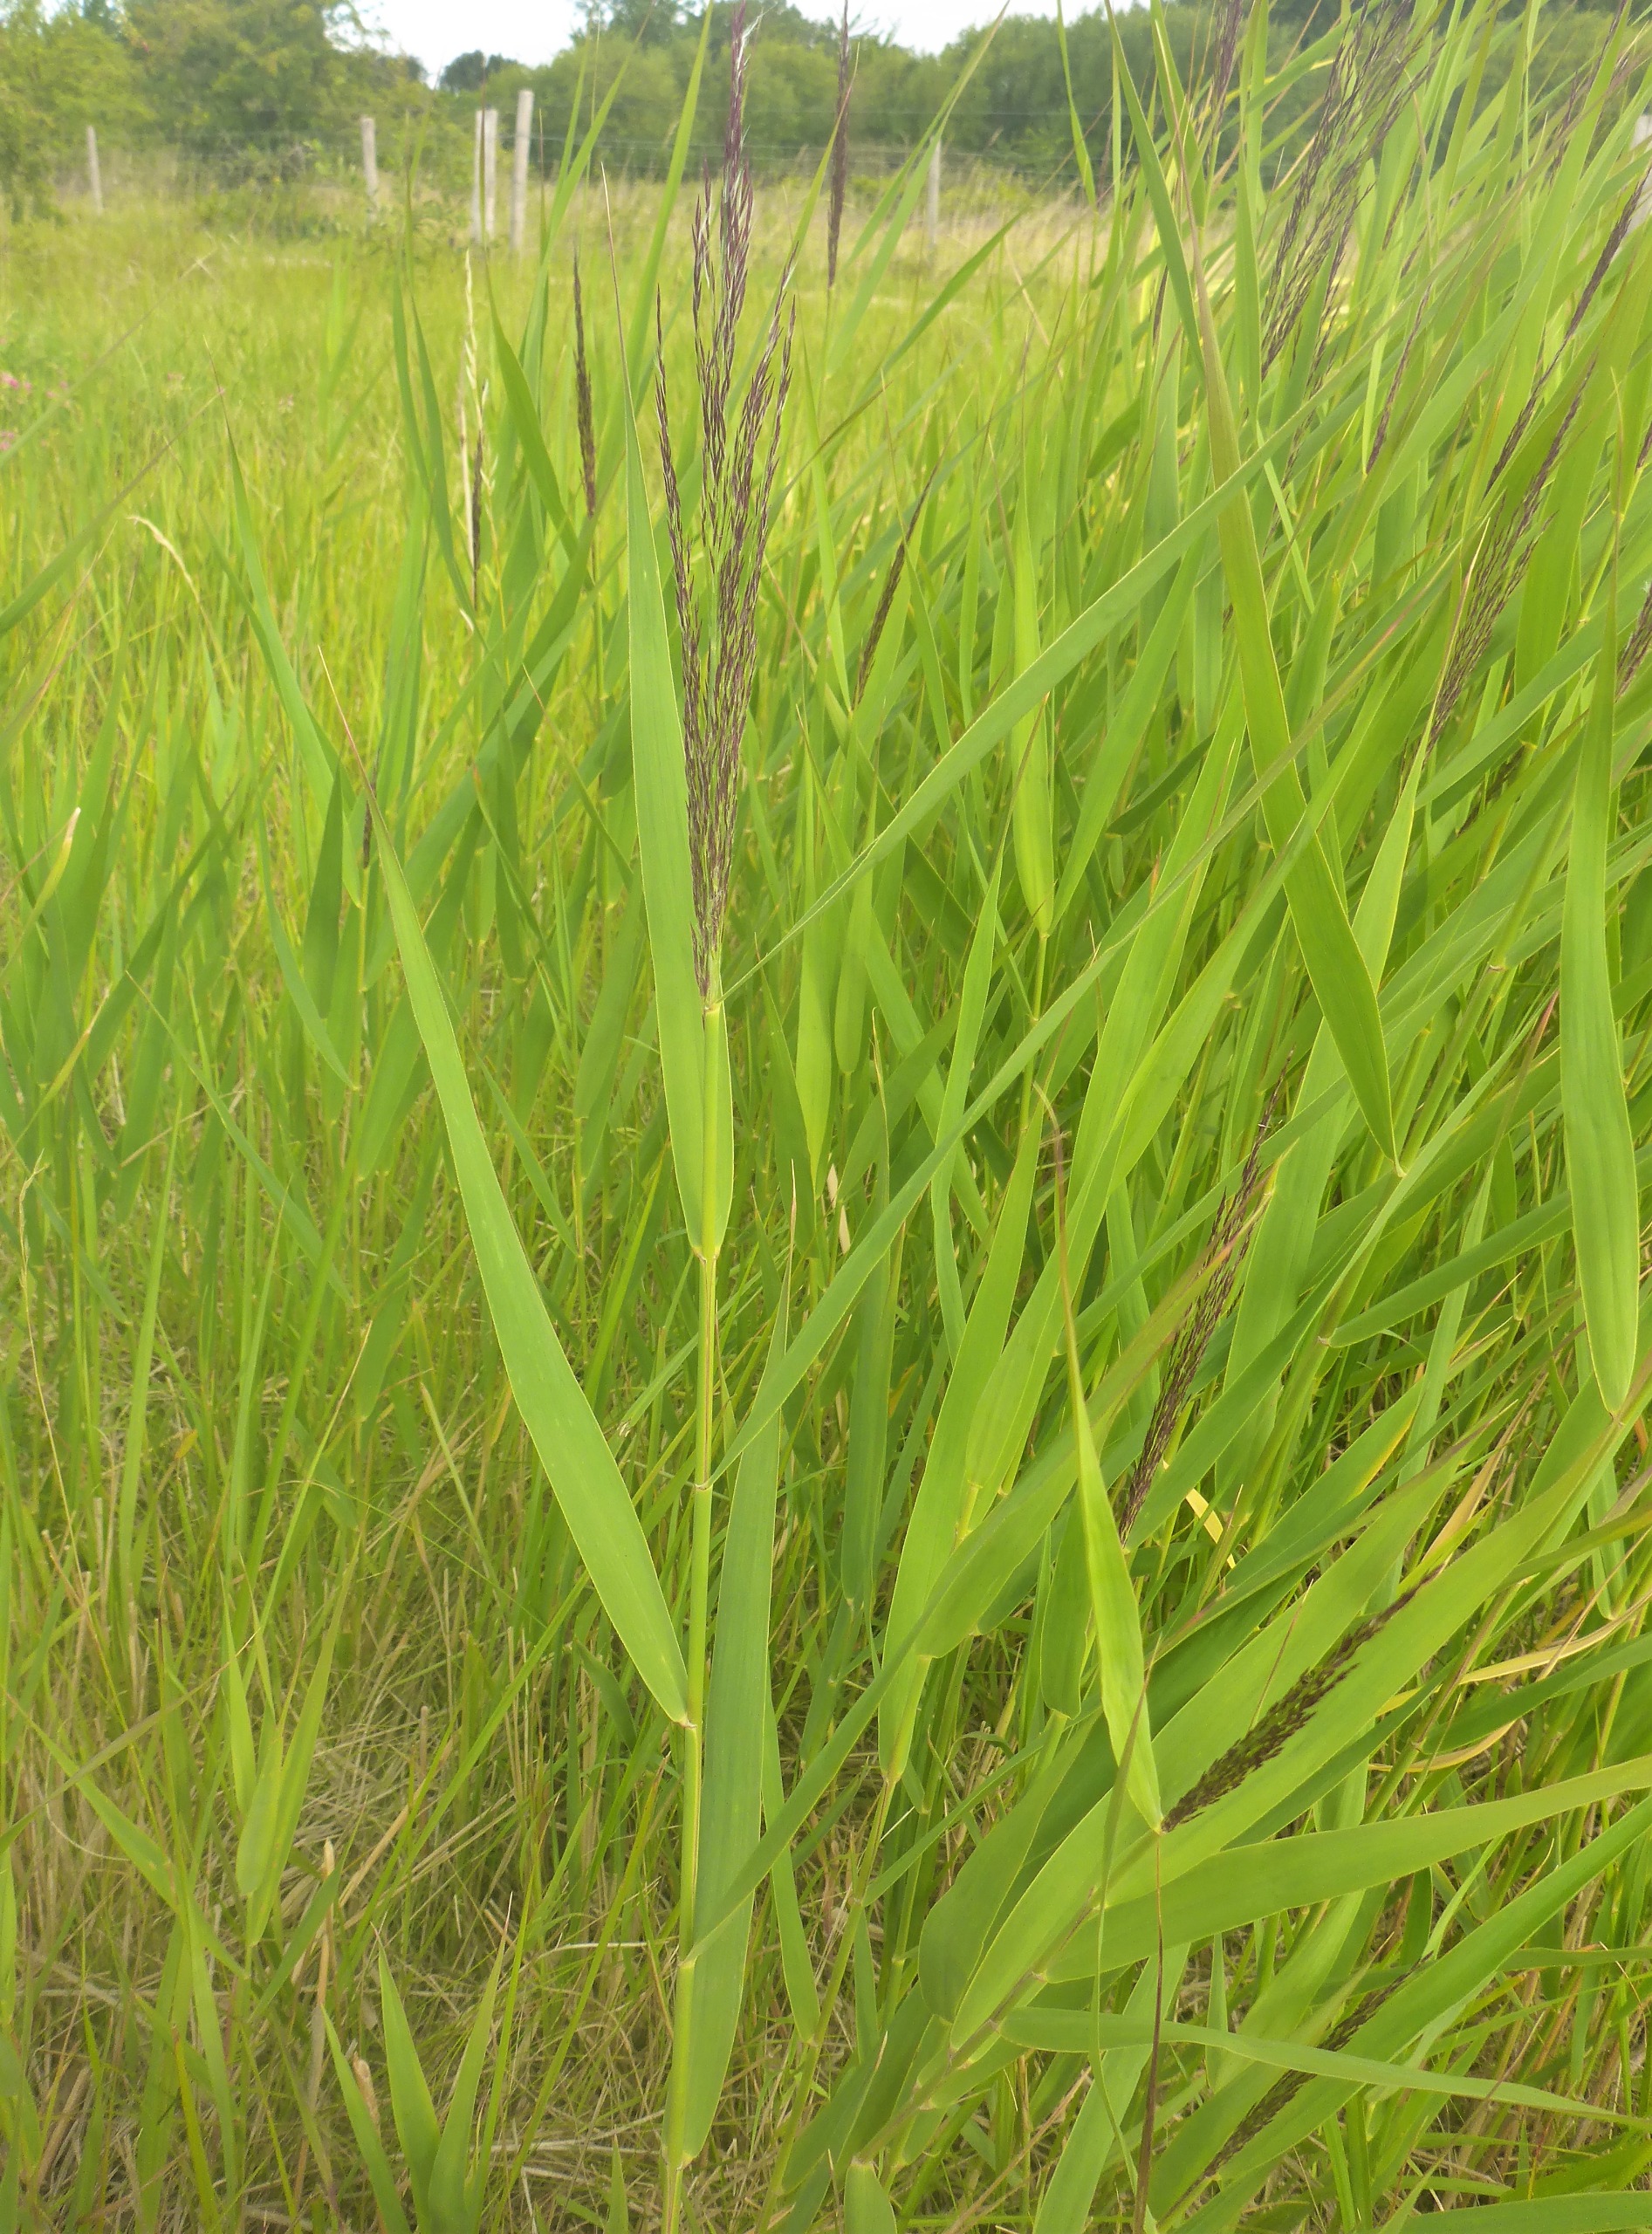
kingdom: Plantae
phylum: Tracheophyta
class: Liliopsida
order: Poales
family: Poaceae
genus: Phragmites
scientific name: Phragmites australis
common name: Tagrør
